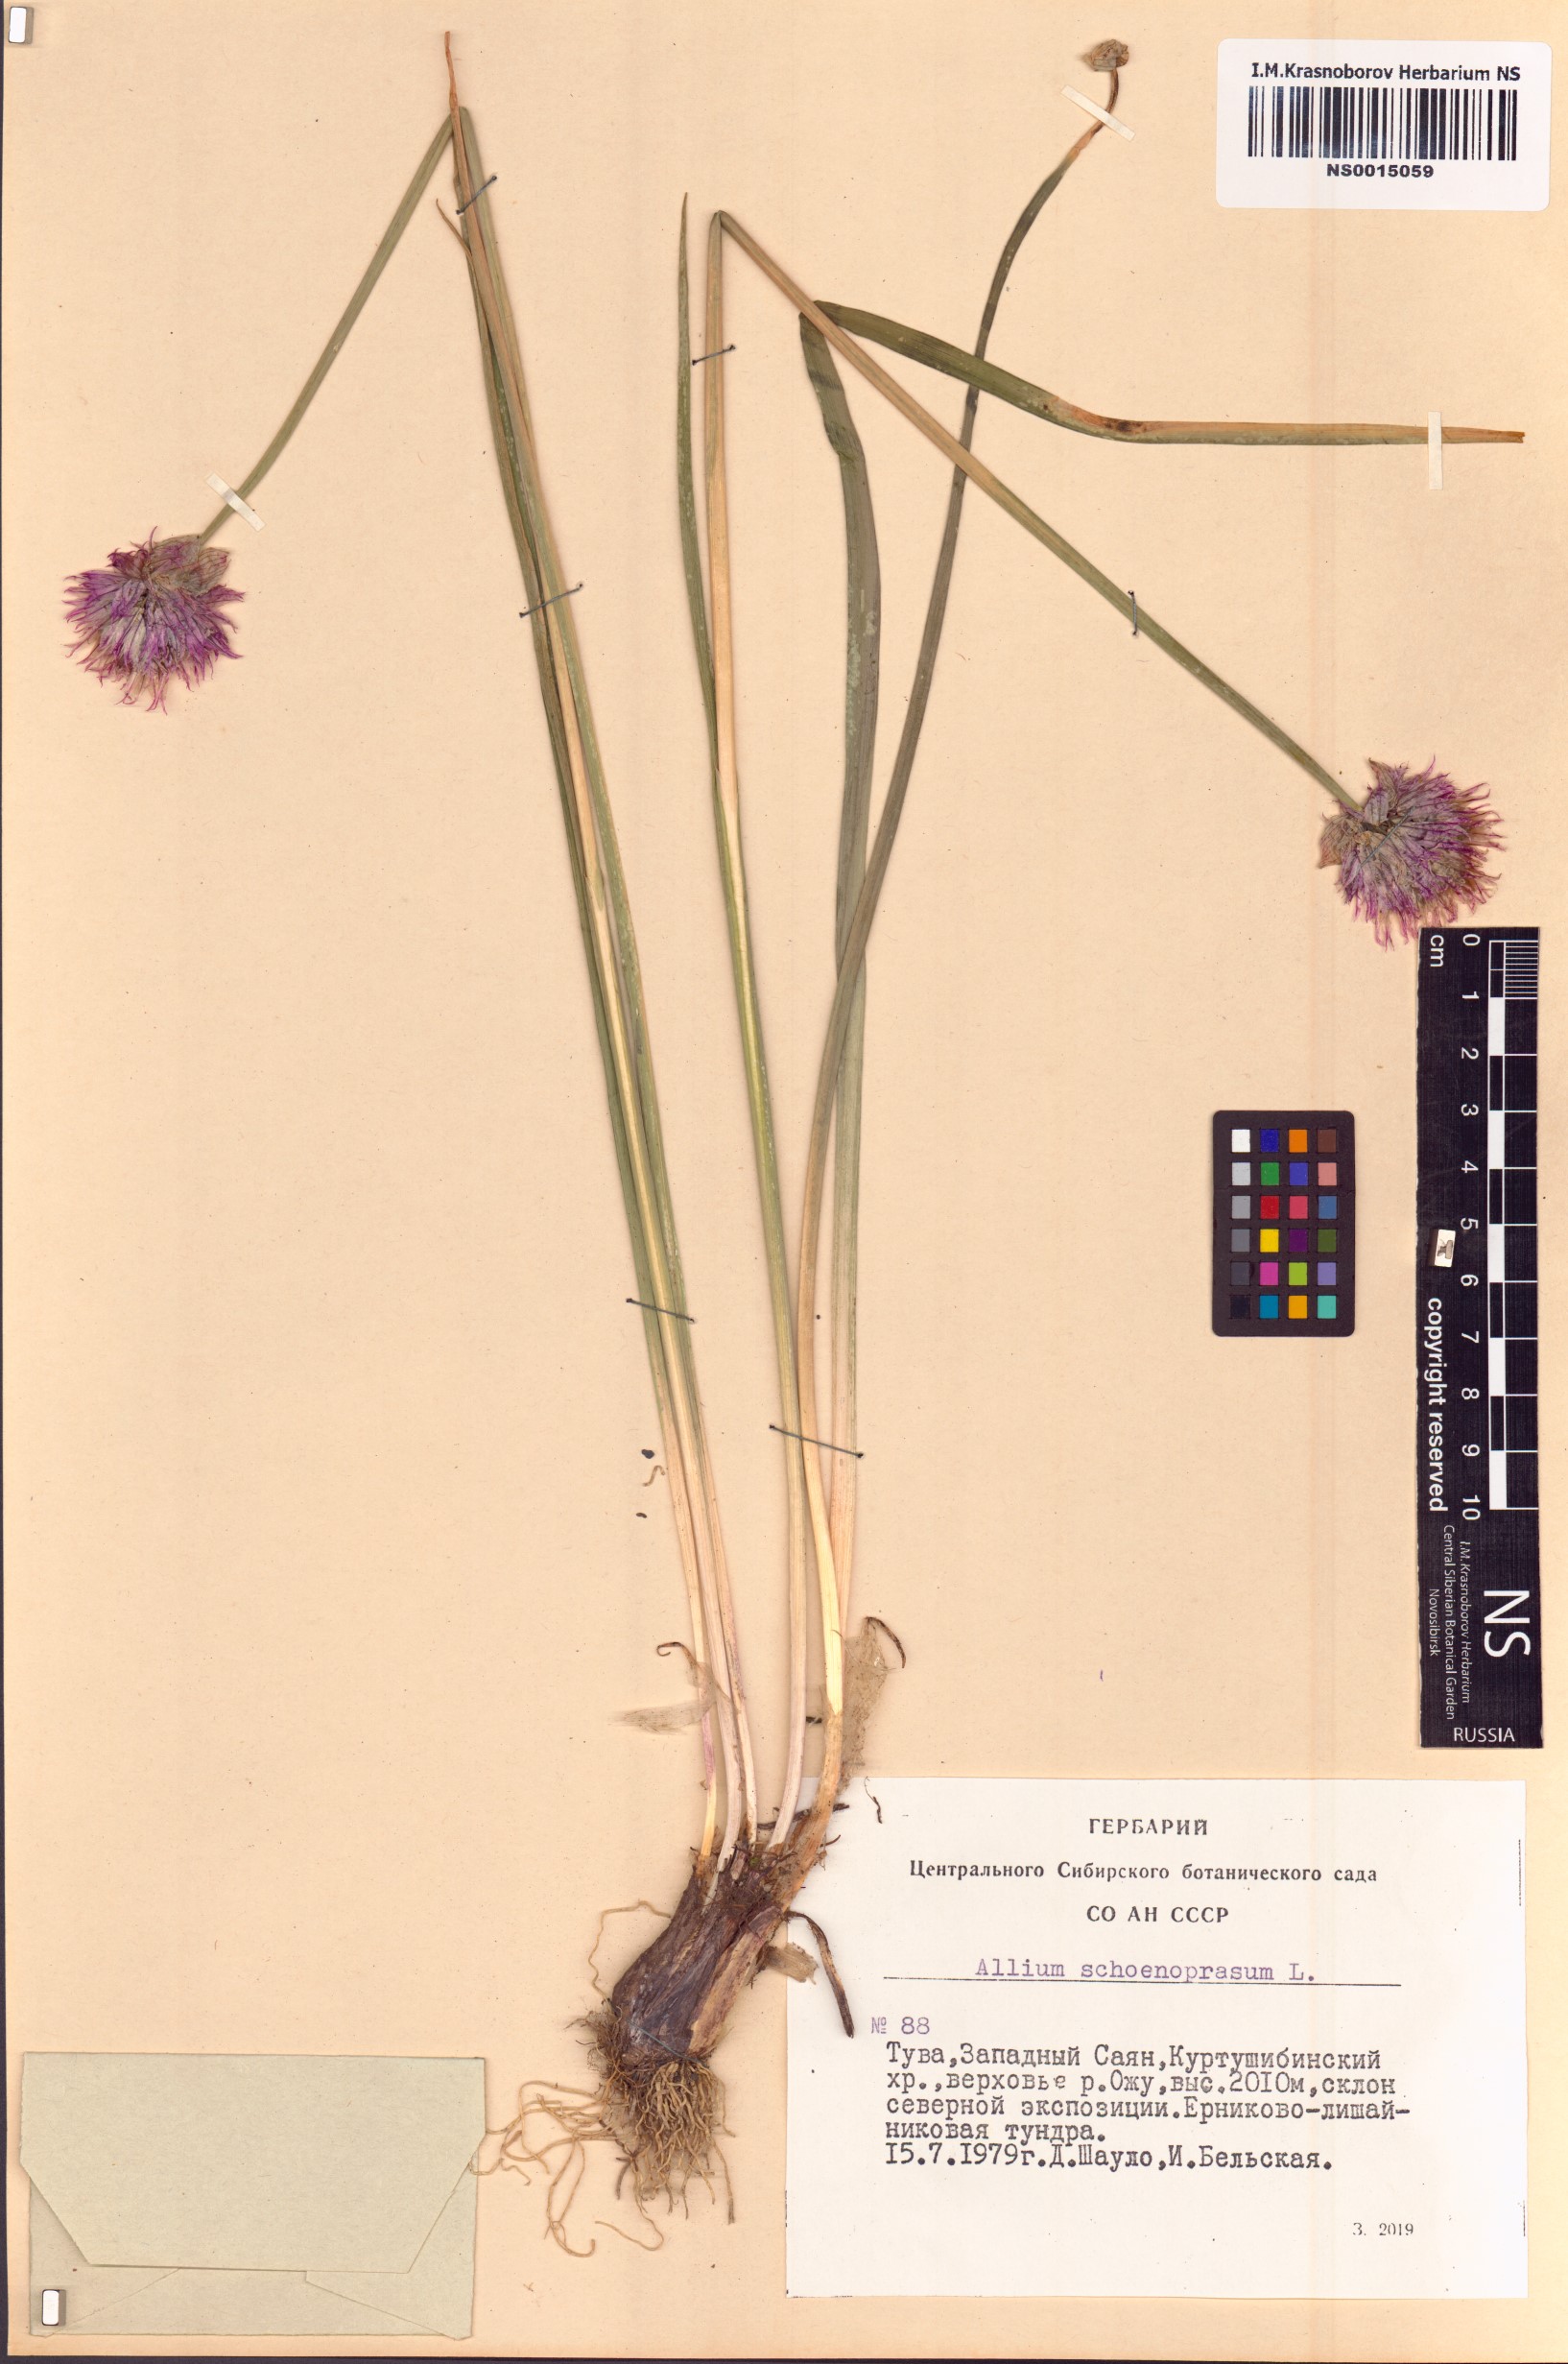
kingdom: Plantae
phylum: Tracheophyta
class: Liliopsida
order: Asparagales
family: Amaryllidaceae
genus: Allium
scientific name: Allium schoenoprasum
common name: Chives
